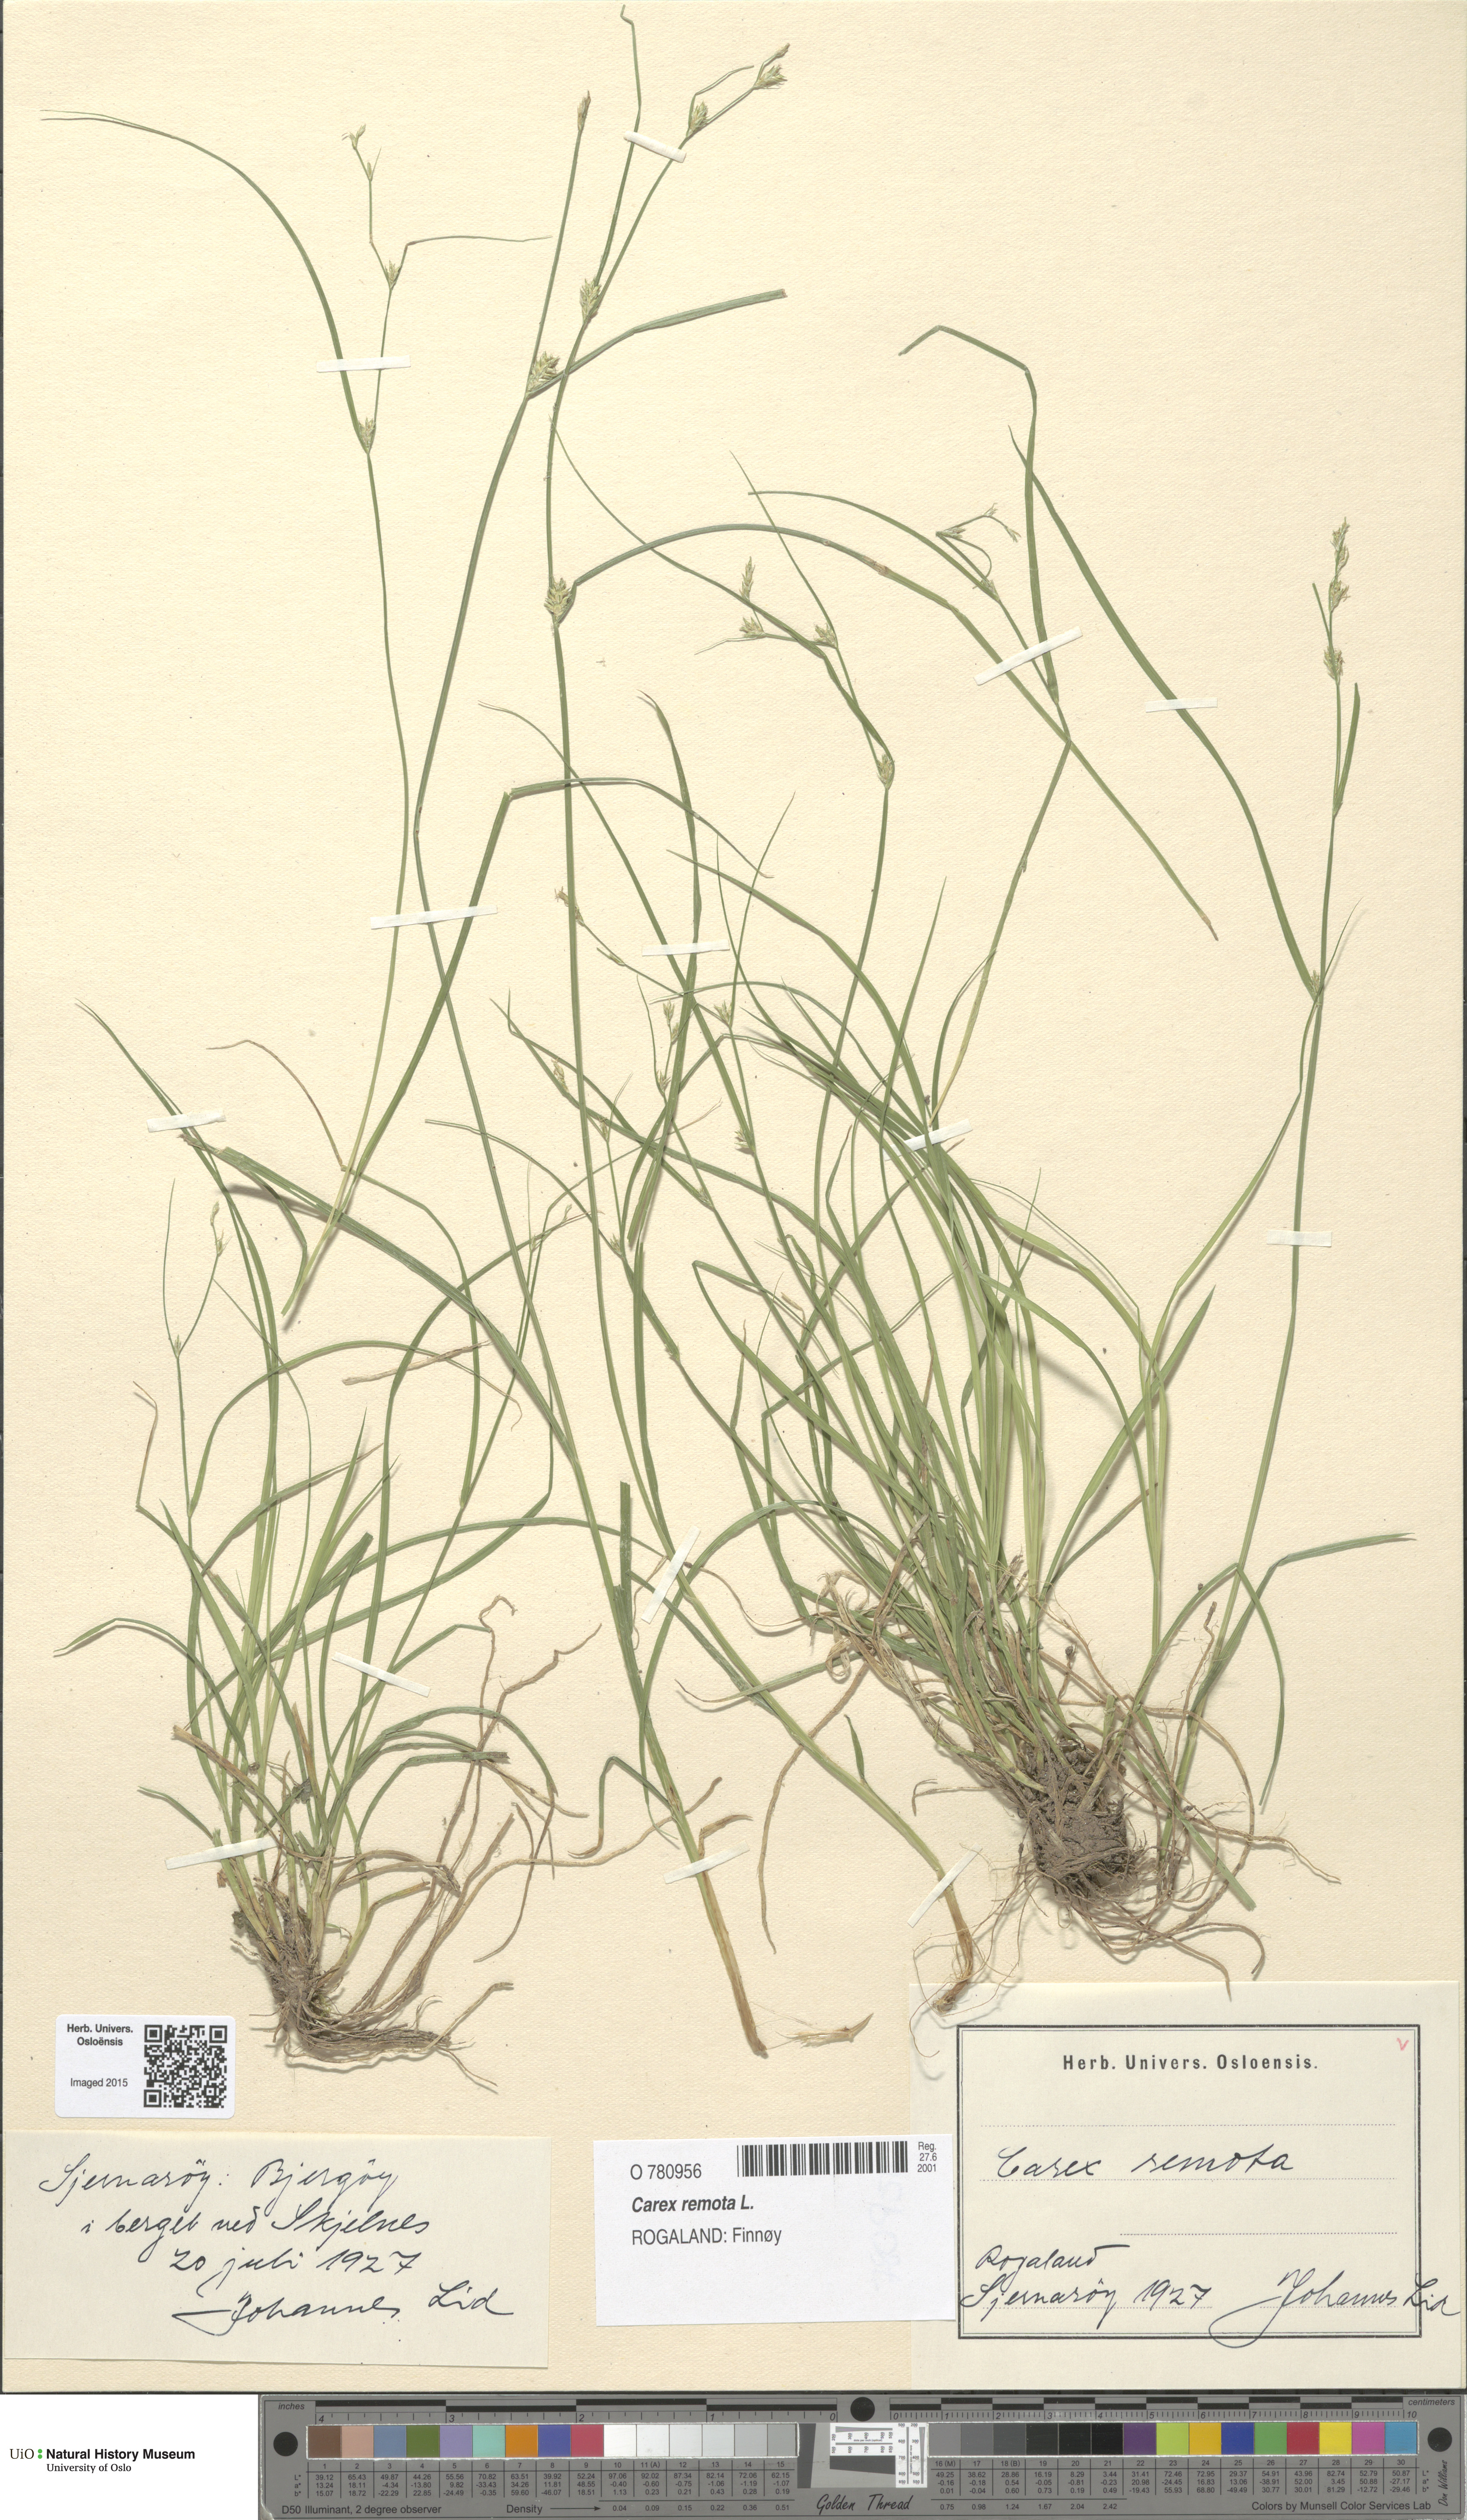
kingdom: Plantae
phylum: Tracheophyta
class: Liliopsida
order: Poales
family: Cyperaceae
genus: Carex
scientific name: Carex remota
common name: Remote sedge
